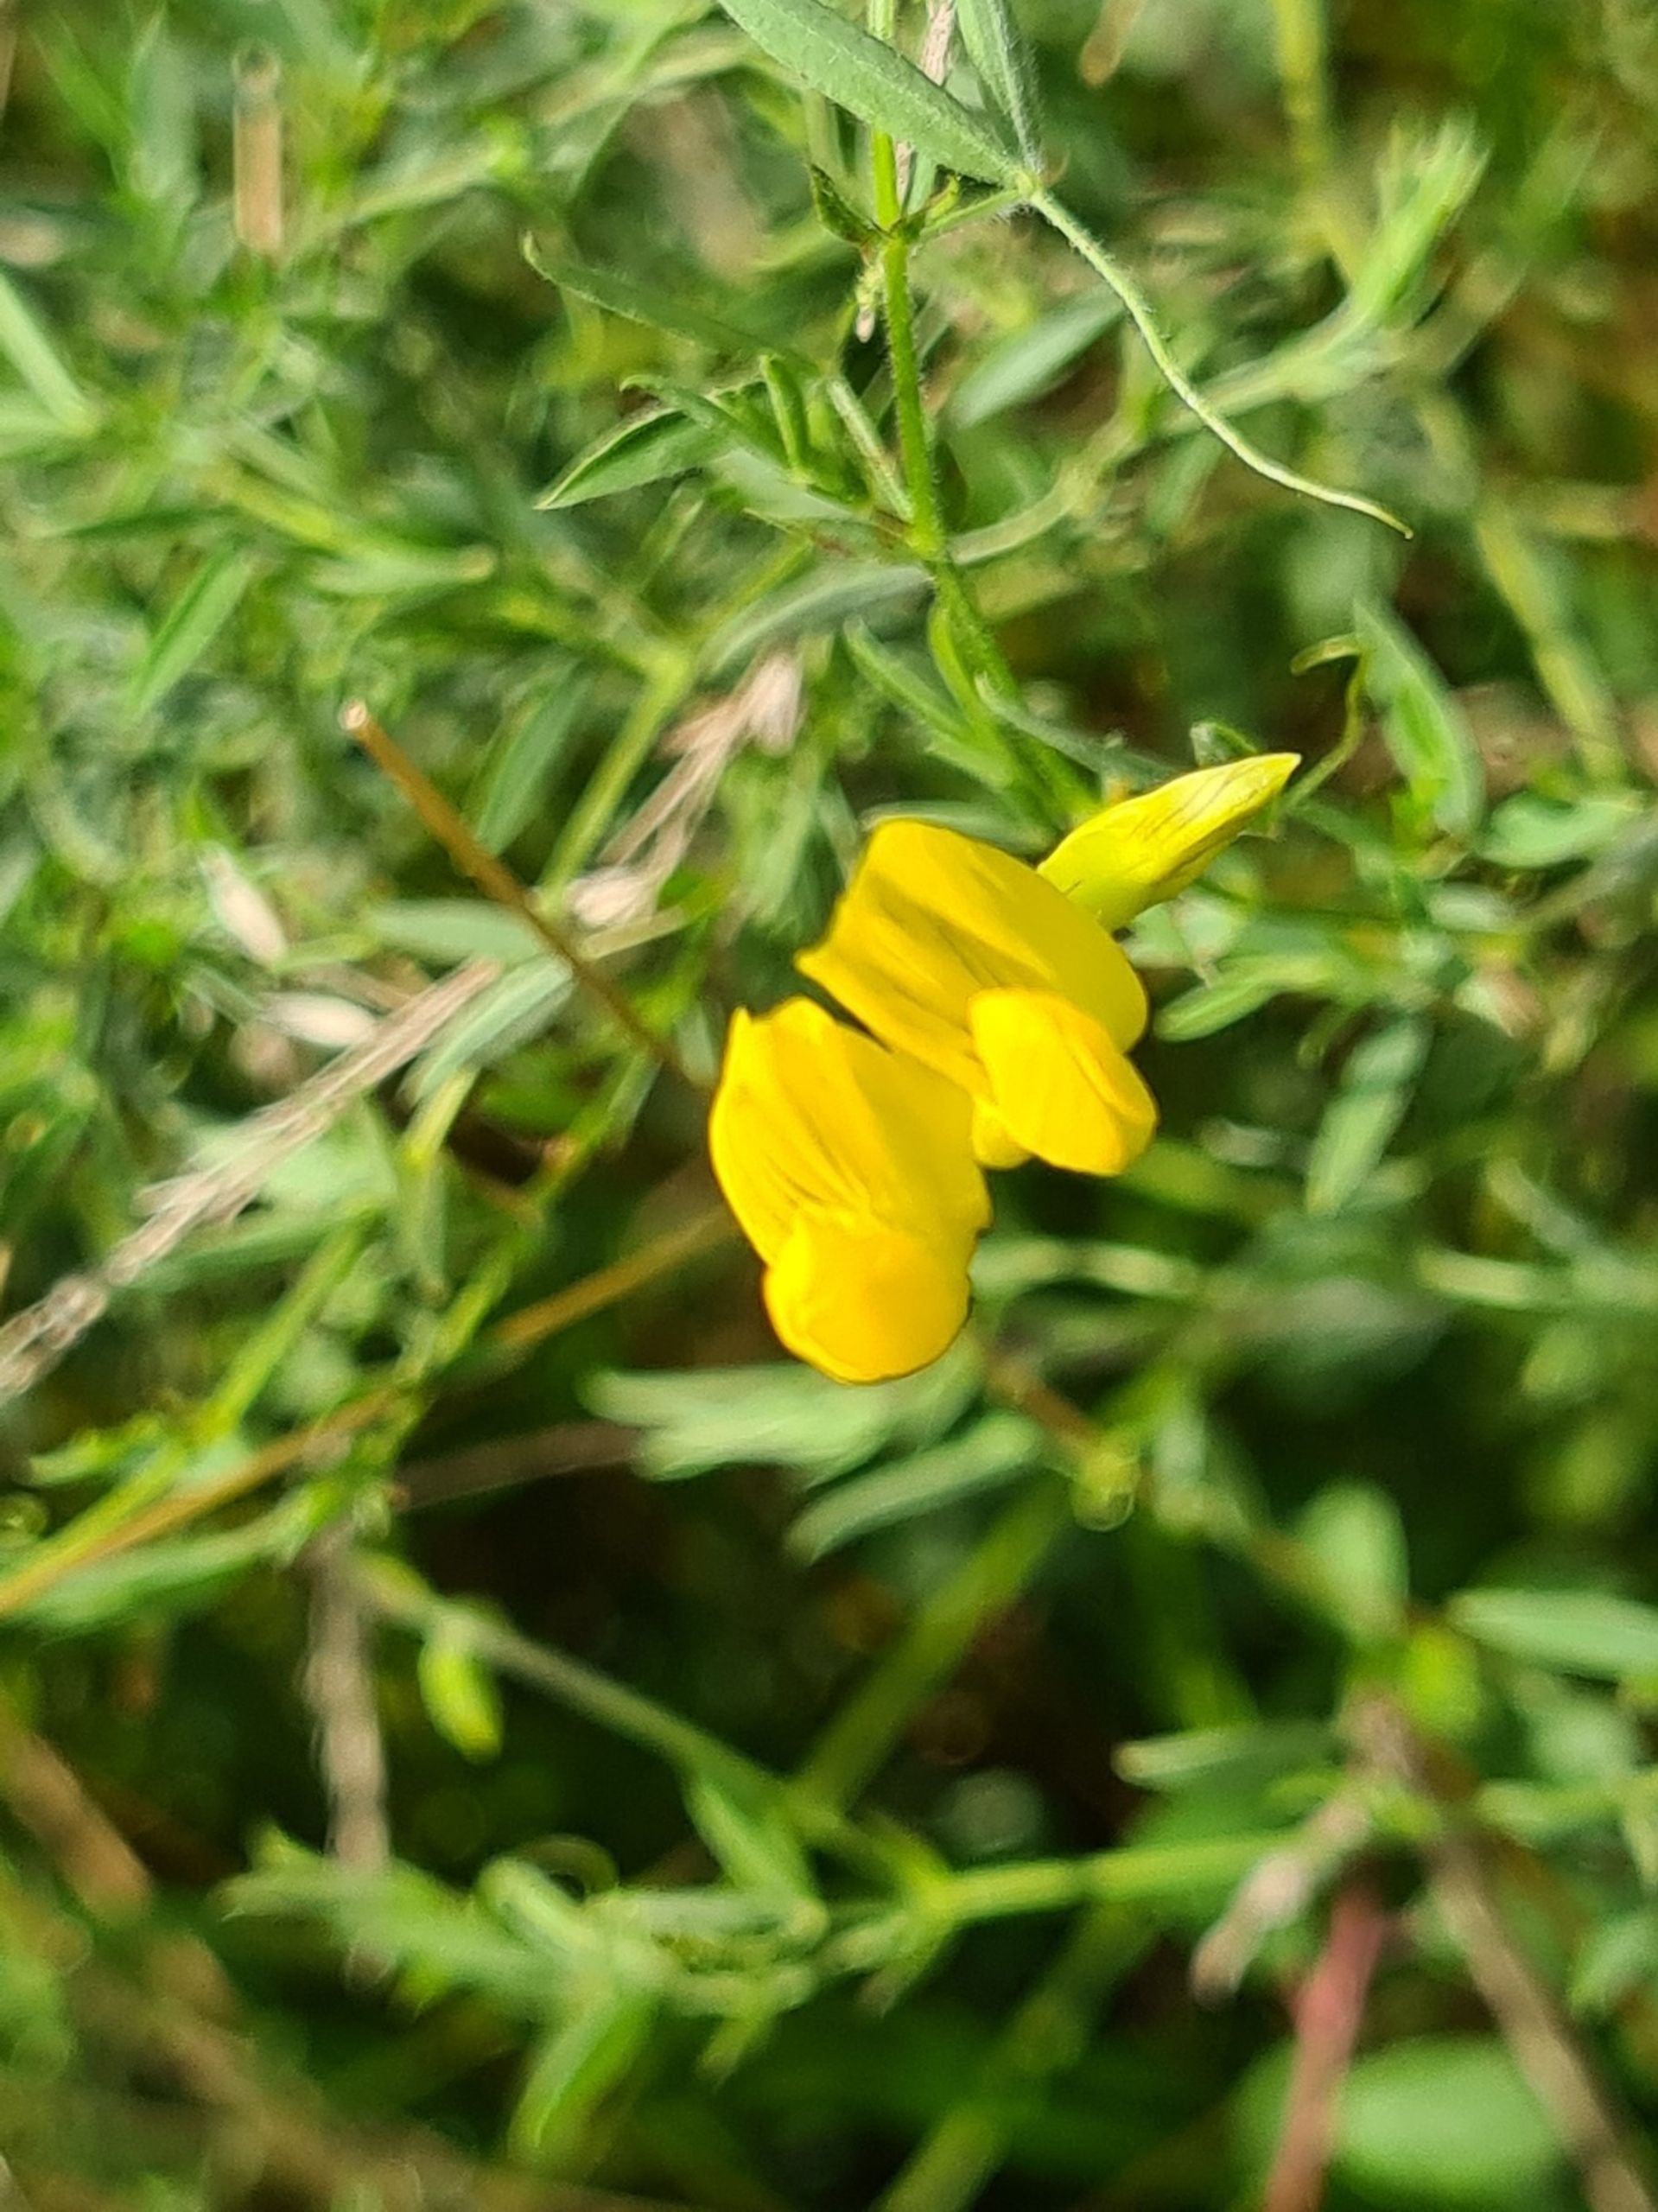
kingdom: Plantae
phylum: Tracheophyta
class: Magnoliopsida
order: Fabales
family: Fabaceae
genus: Lathyrus
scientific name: Lathyrus pratensis
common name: Gul fladbælg
